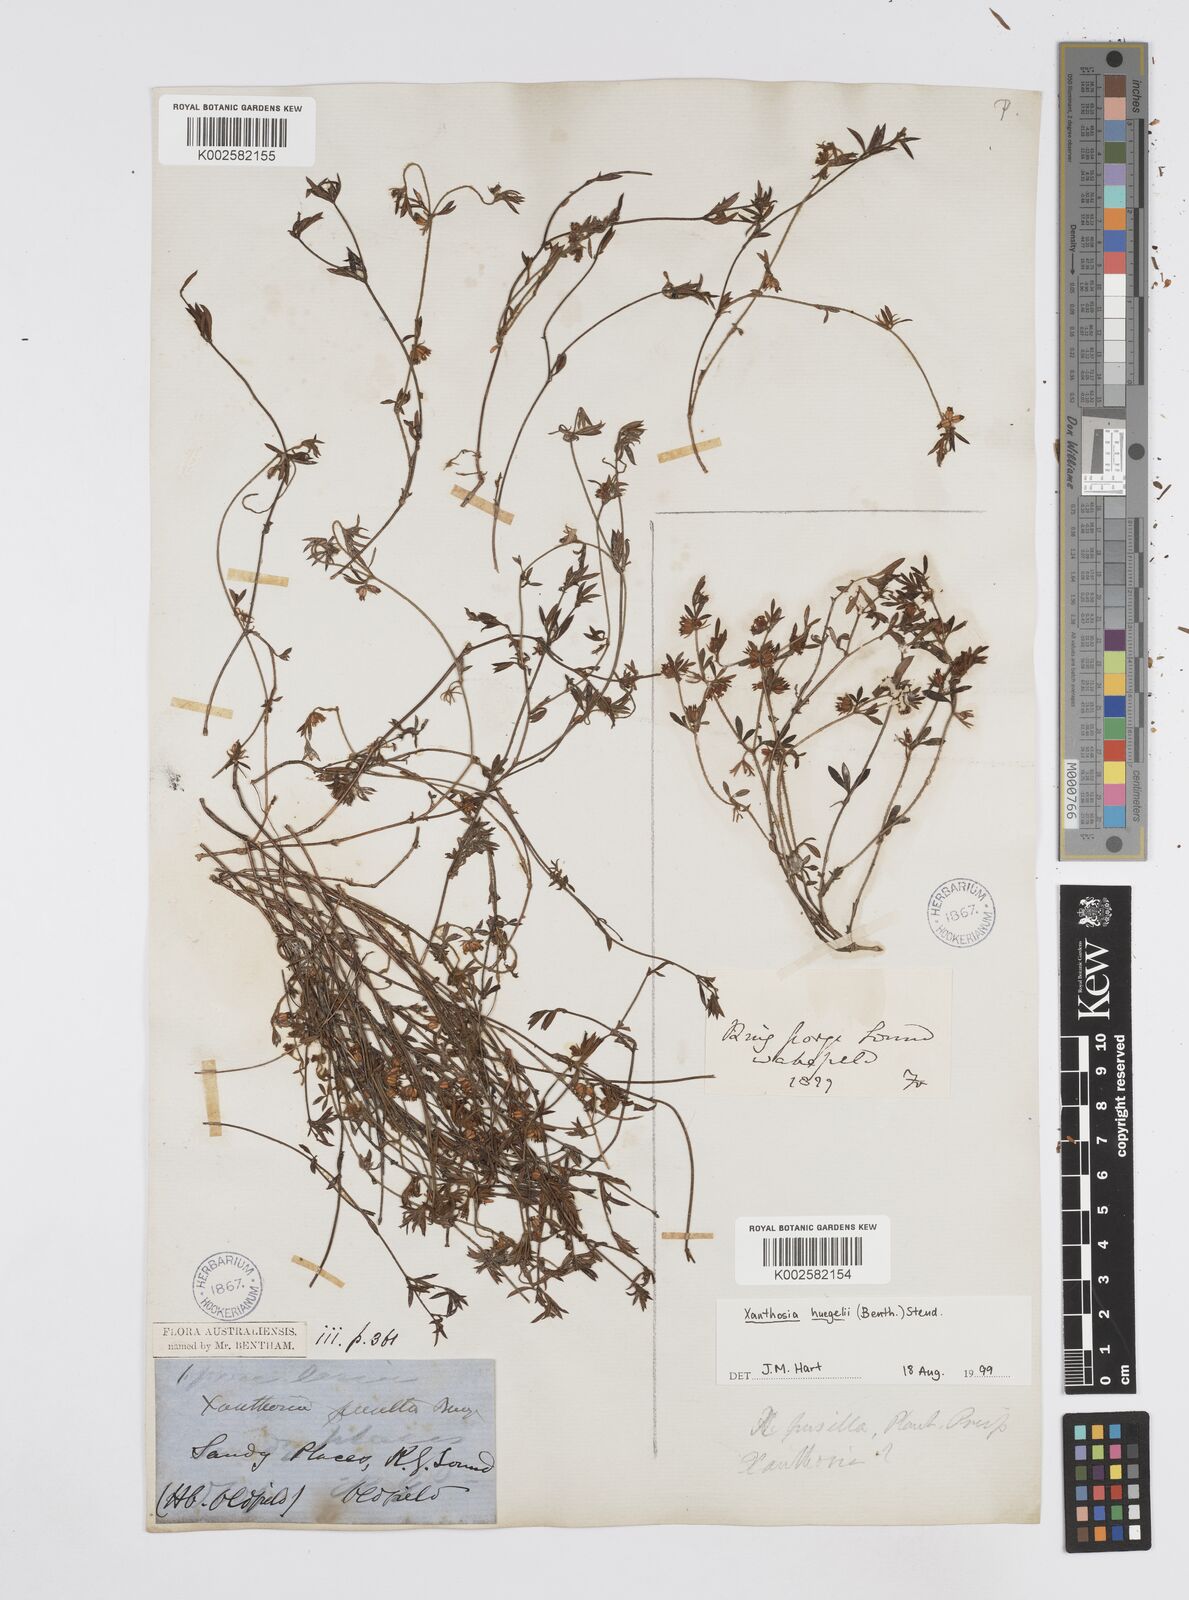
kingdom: Plantae
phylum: Tracheophyta
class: Magnoliopsida
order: Apiales
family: Apiaceae
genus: Xanthosia
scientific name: Xanthosia huegelii
